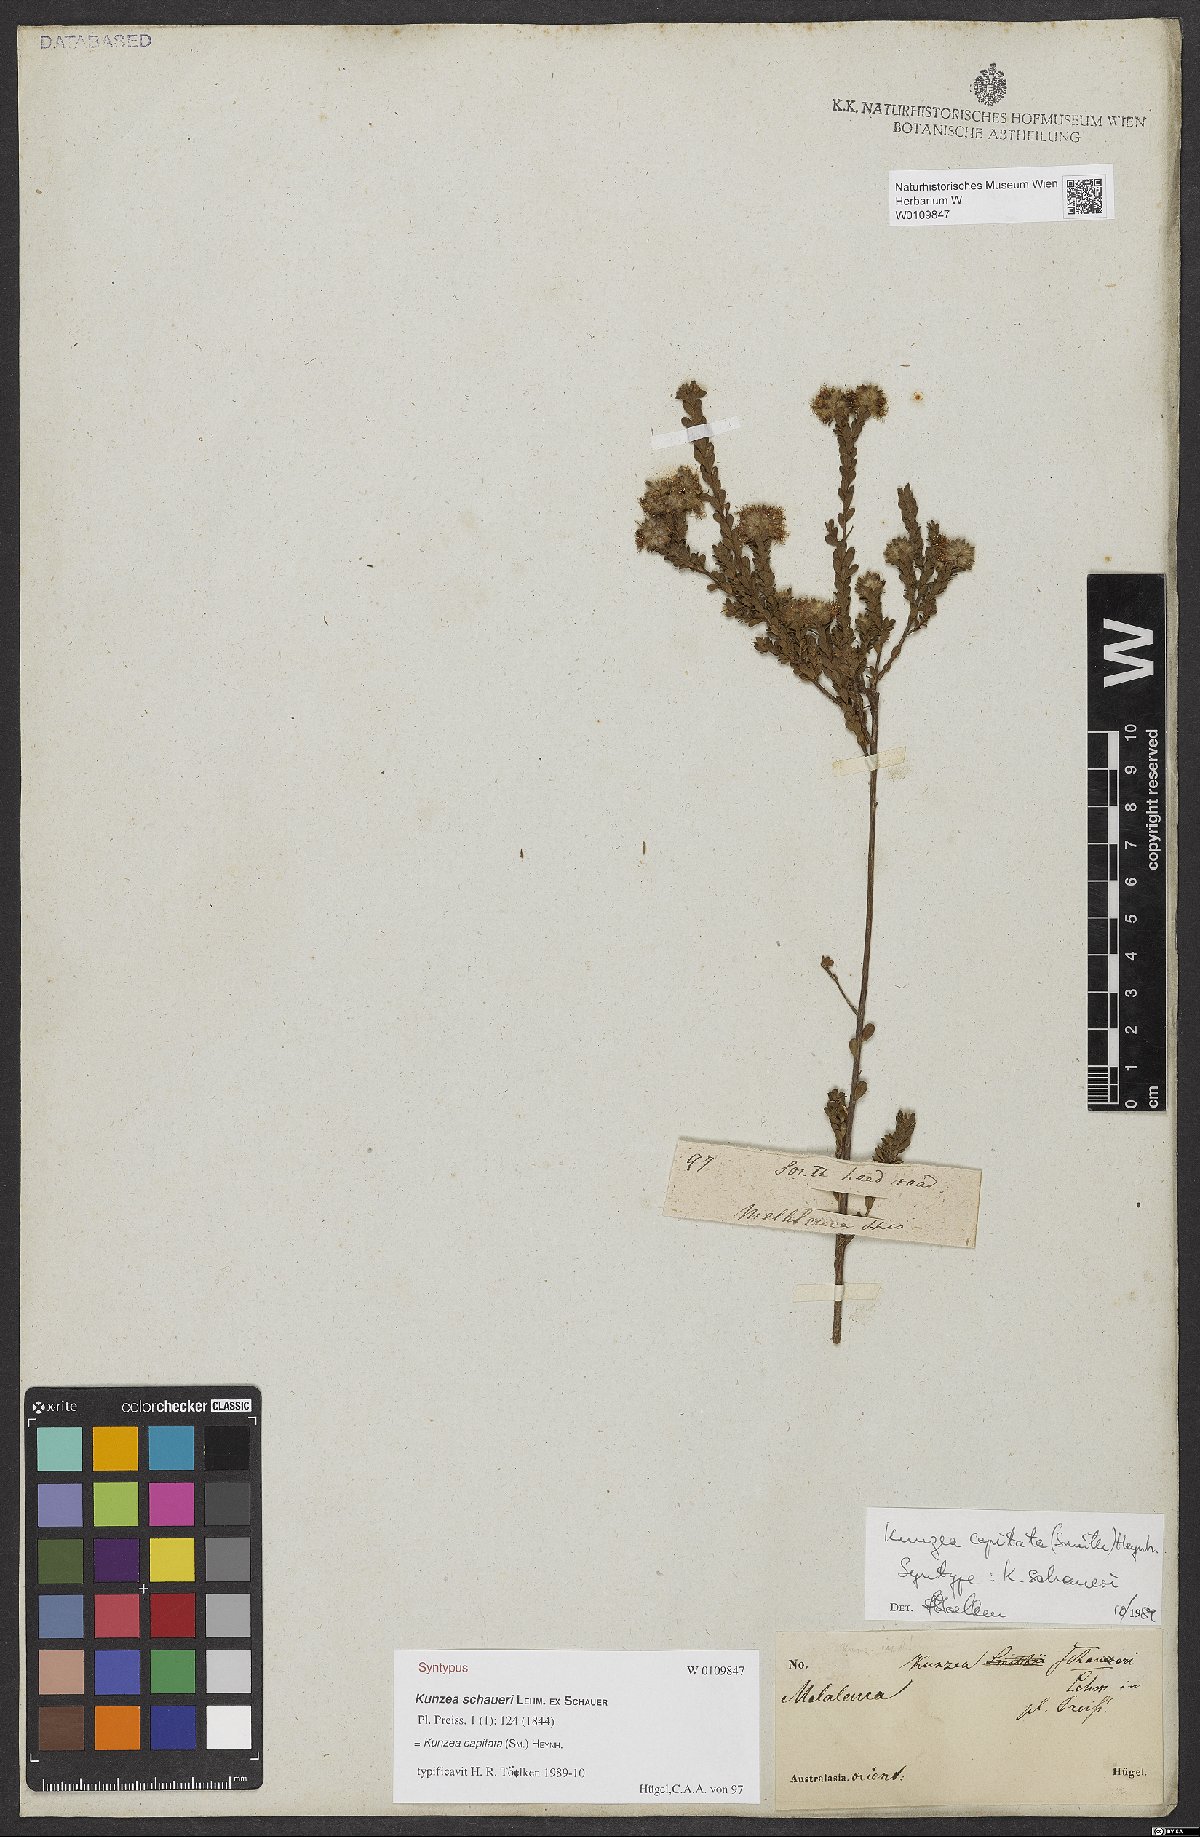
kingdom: Plantae
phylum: Tracheophyta
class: Magnoliopsida
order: Myrtales
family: Myrtaceae
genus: Kunzea
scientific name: Kunzea capitata
